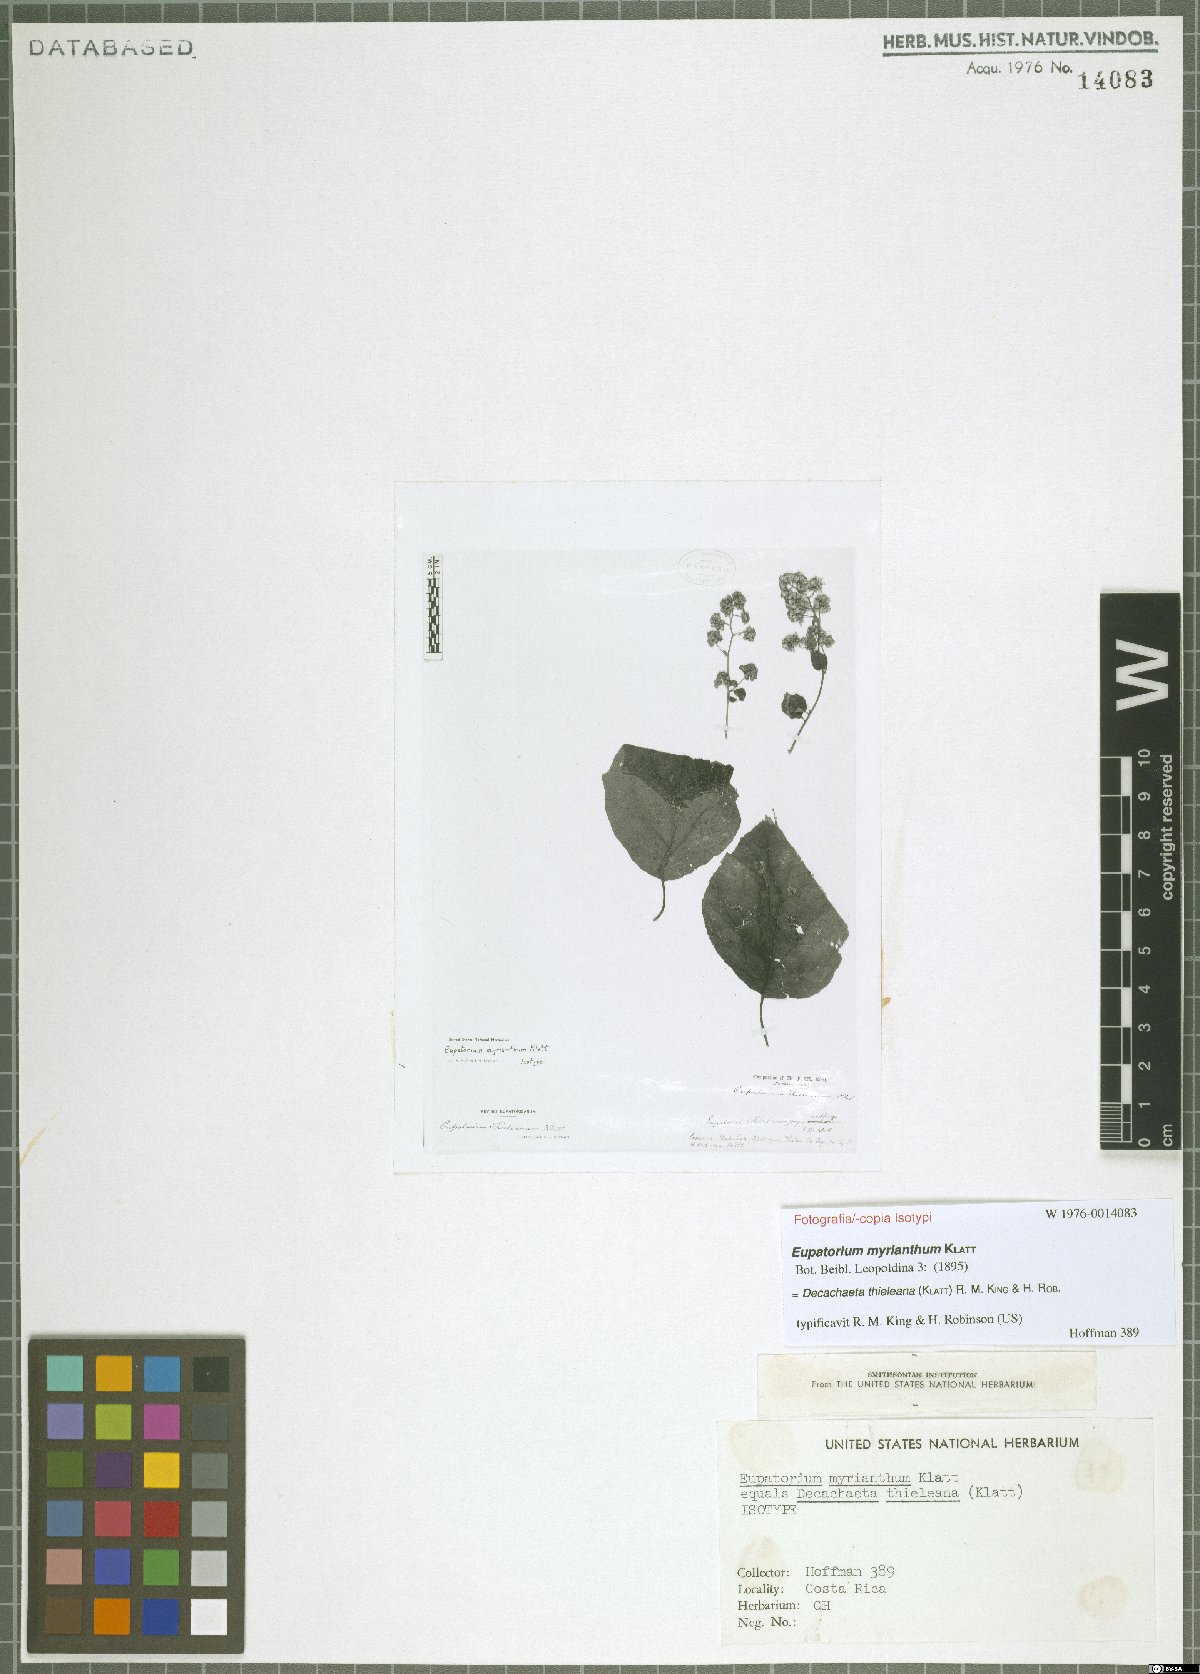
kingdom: Plantae
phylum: Tracheophyta
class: Magnoliopsida
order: Asterales
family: Asteraceae
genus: Decachaeta
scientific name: Decachaeta thieleana
